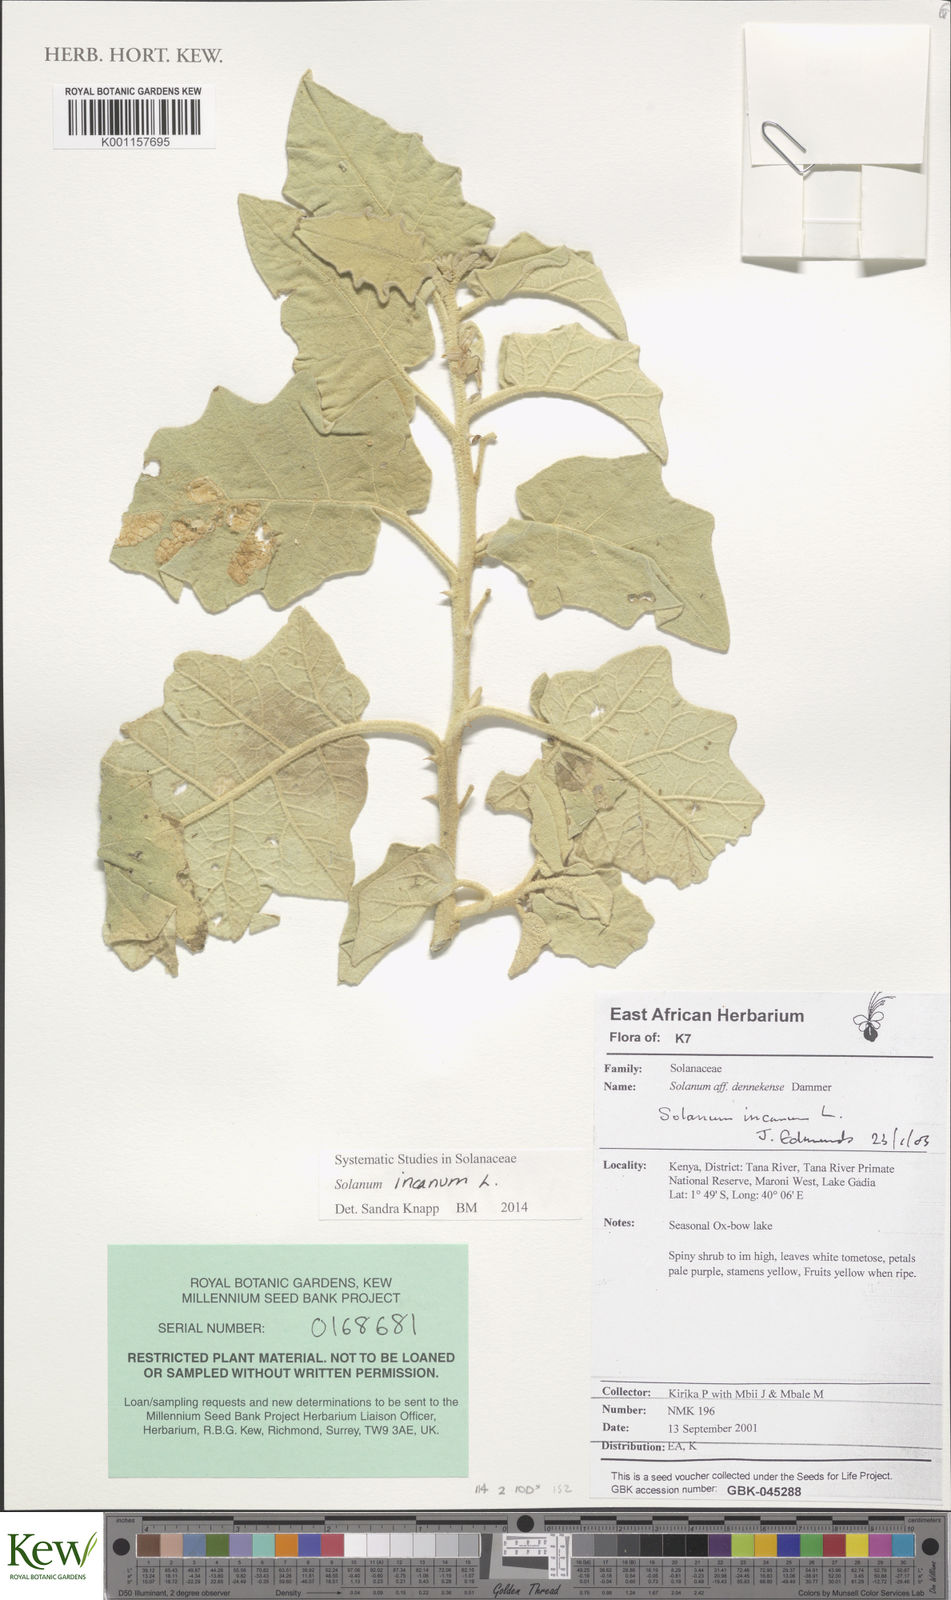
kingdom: Plantae
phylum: Tracheophyta
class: Magnoliopsida
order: Solanales
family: Solanaceae
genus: Solanum
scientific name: Solanum incanum
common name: Bitter apple
